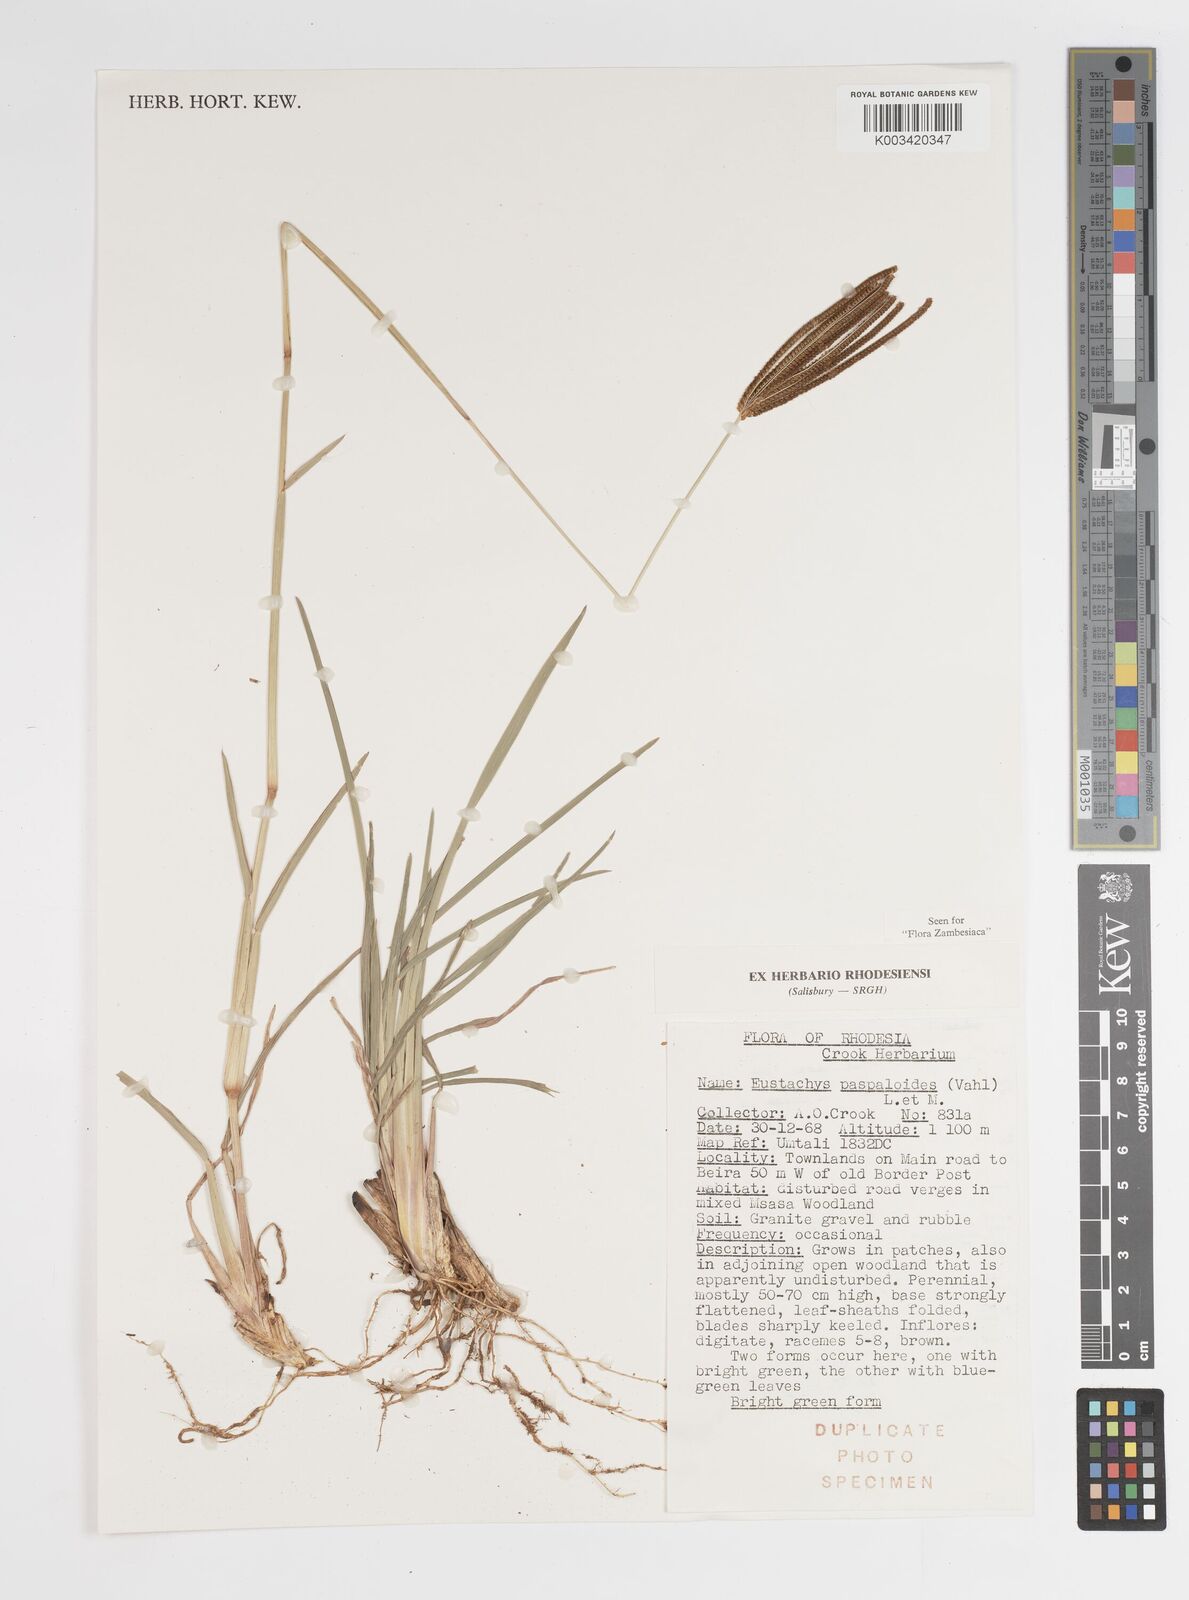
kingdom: Plantae
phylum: Tracheophyta
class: Liliopsida
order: Poales
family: Poaceae
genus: Eustachys
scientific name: Eustachys paspaloides
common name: Caribbean fingergrass
